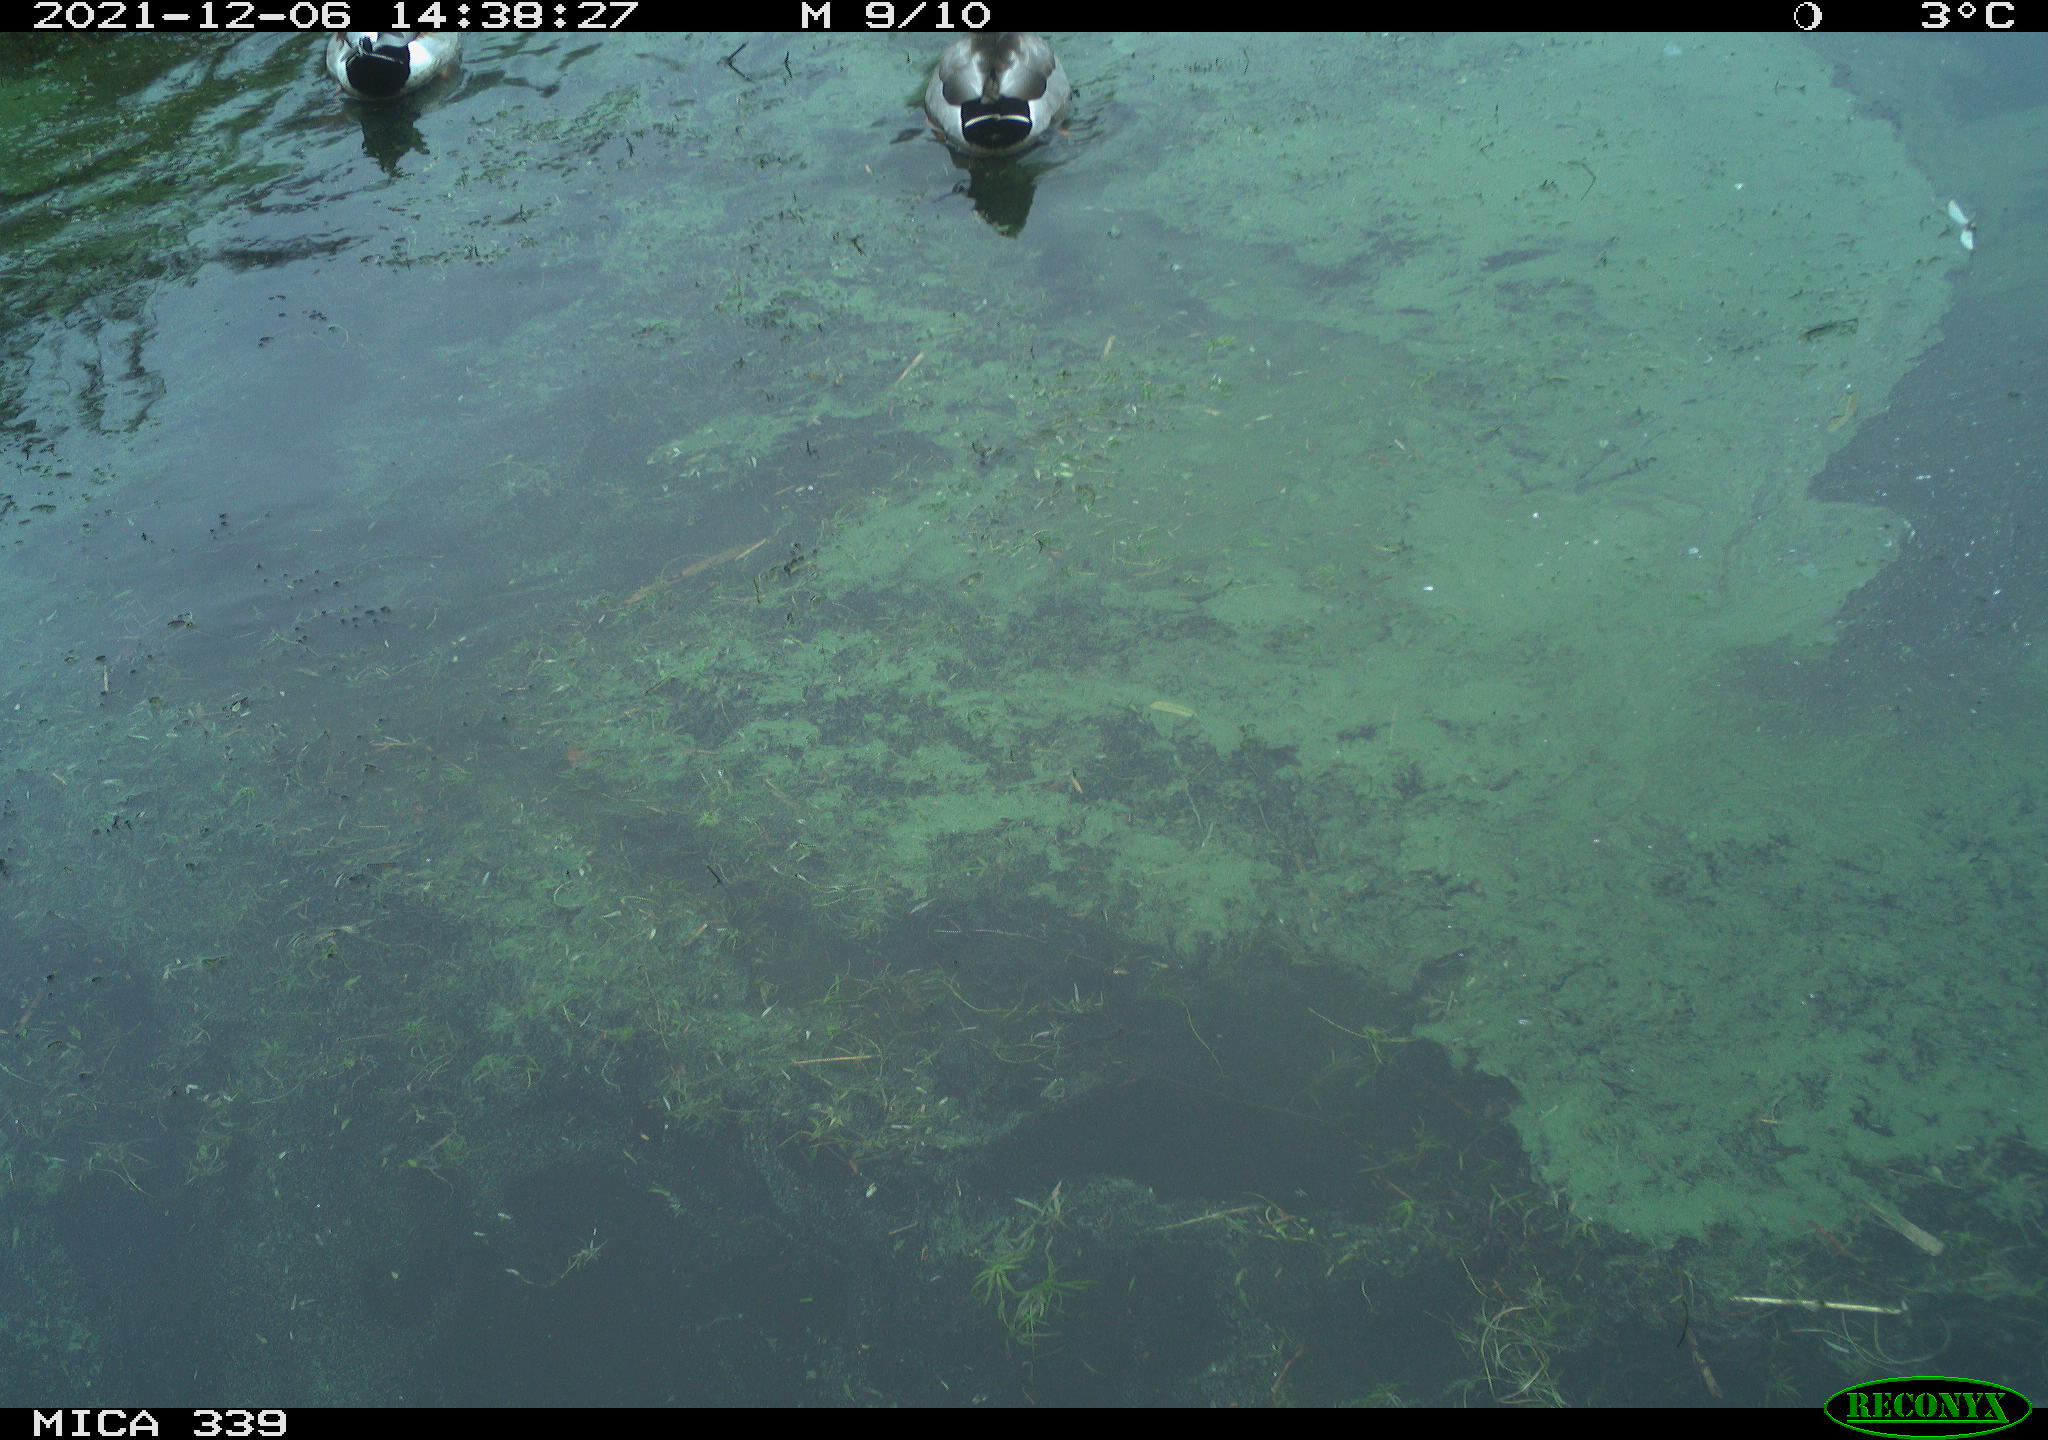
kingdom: Animalia
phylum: Chordata
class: Aves
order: Anseriformes
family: Anatidae
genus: Anas
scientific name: Anas platyrhynchos
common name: Mallard
